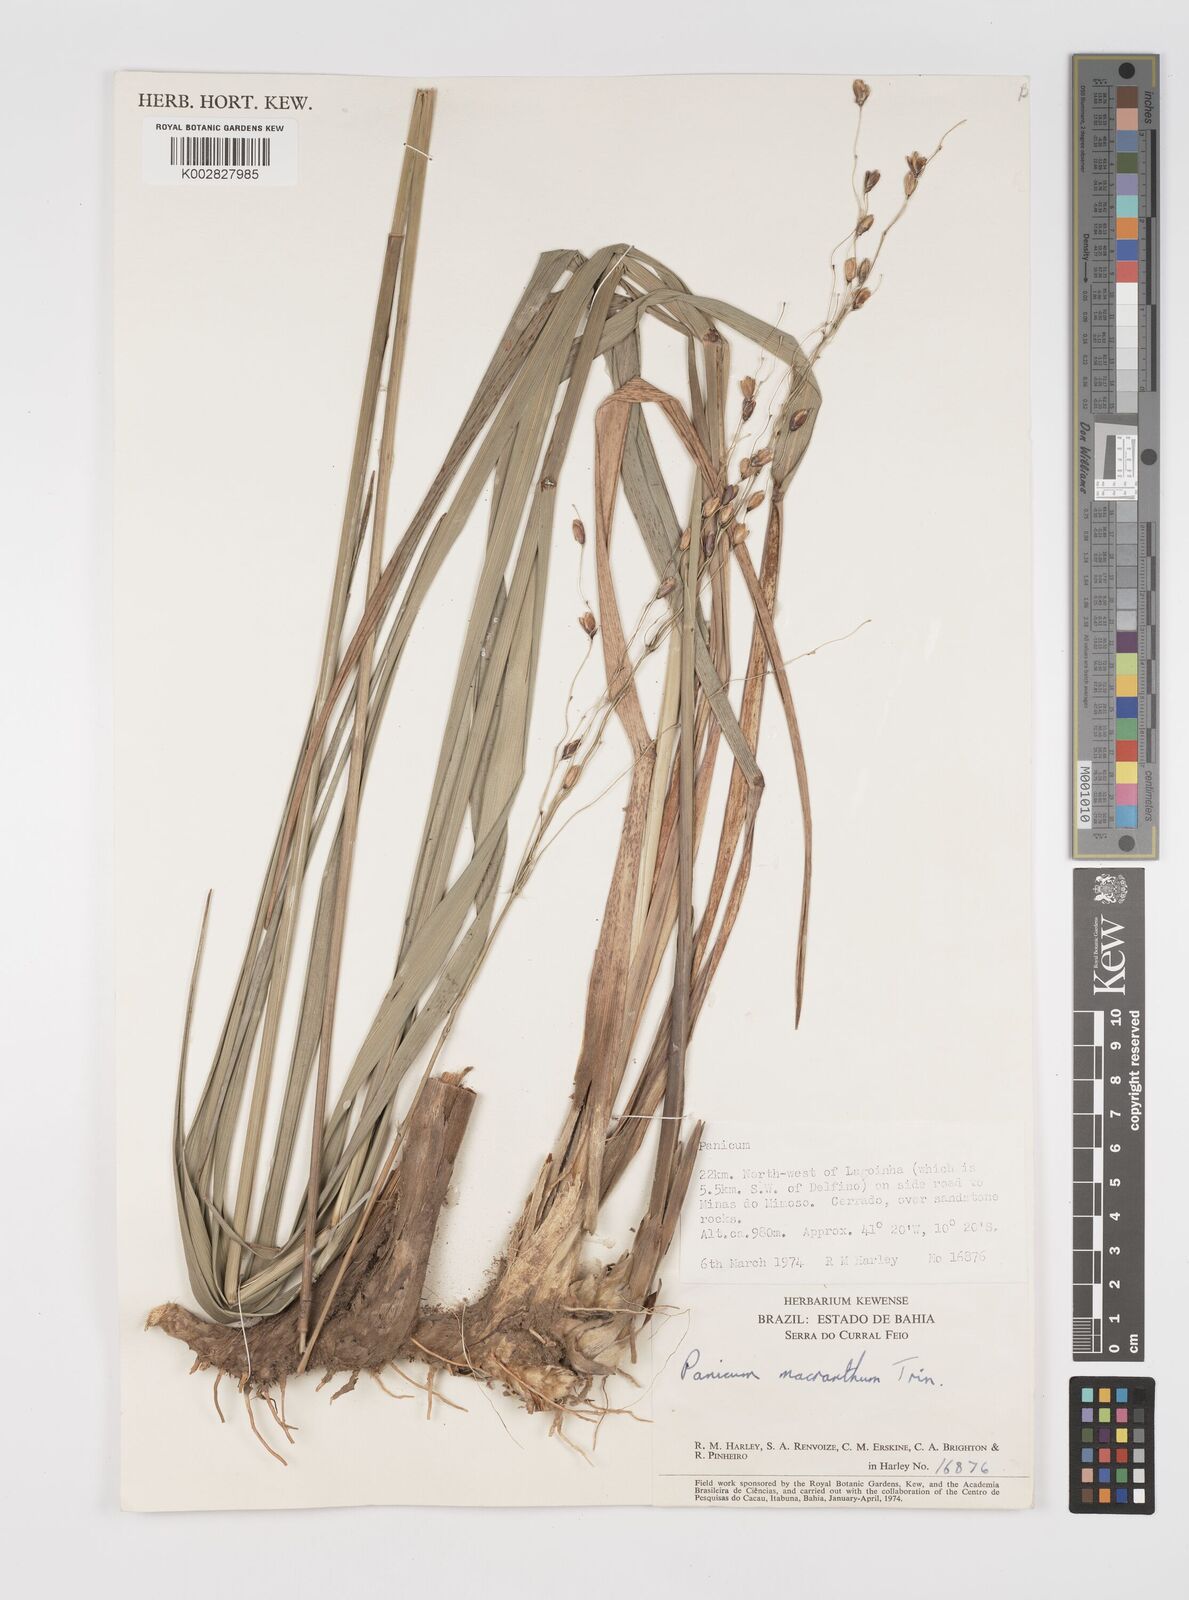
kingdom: Plantae
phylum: Tracheophyta
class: Liliopsida
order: Poales
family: Poaceae
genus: Oncorachis
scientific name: Oncorachis ramosa
